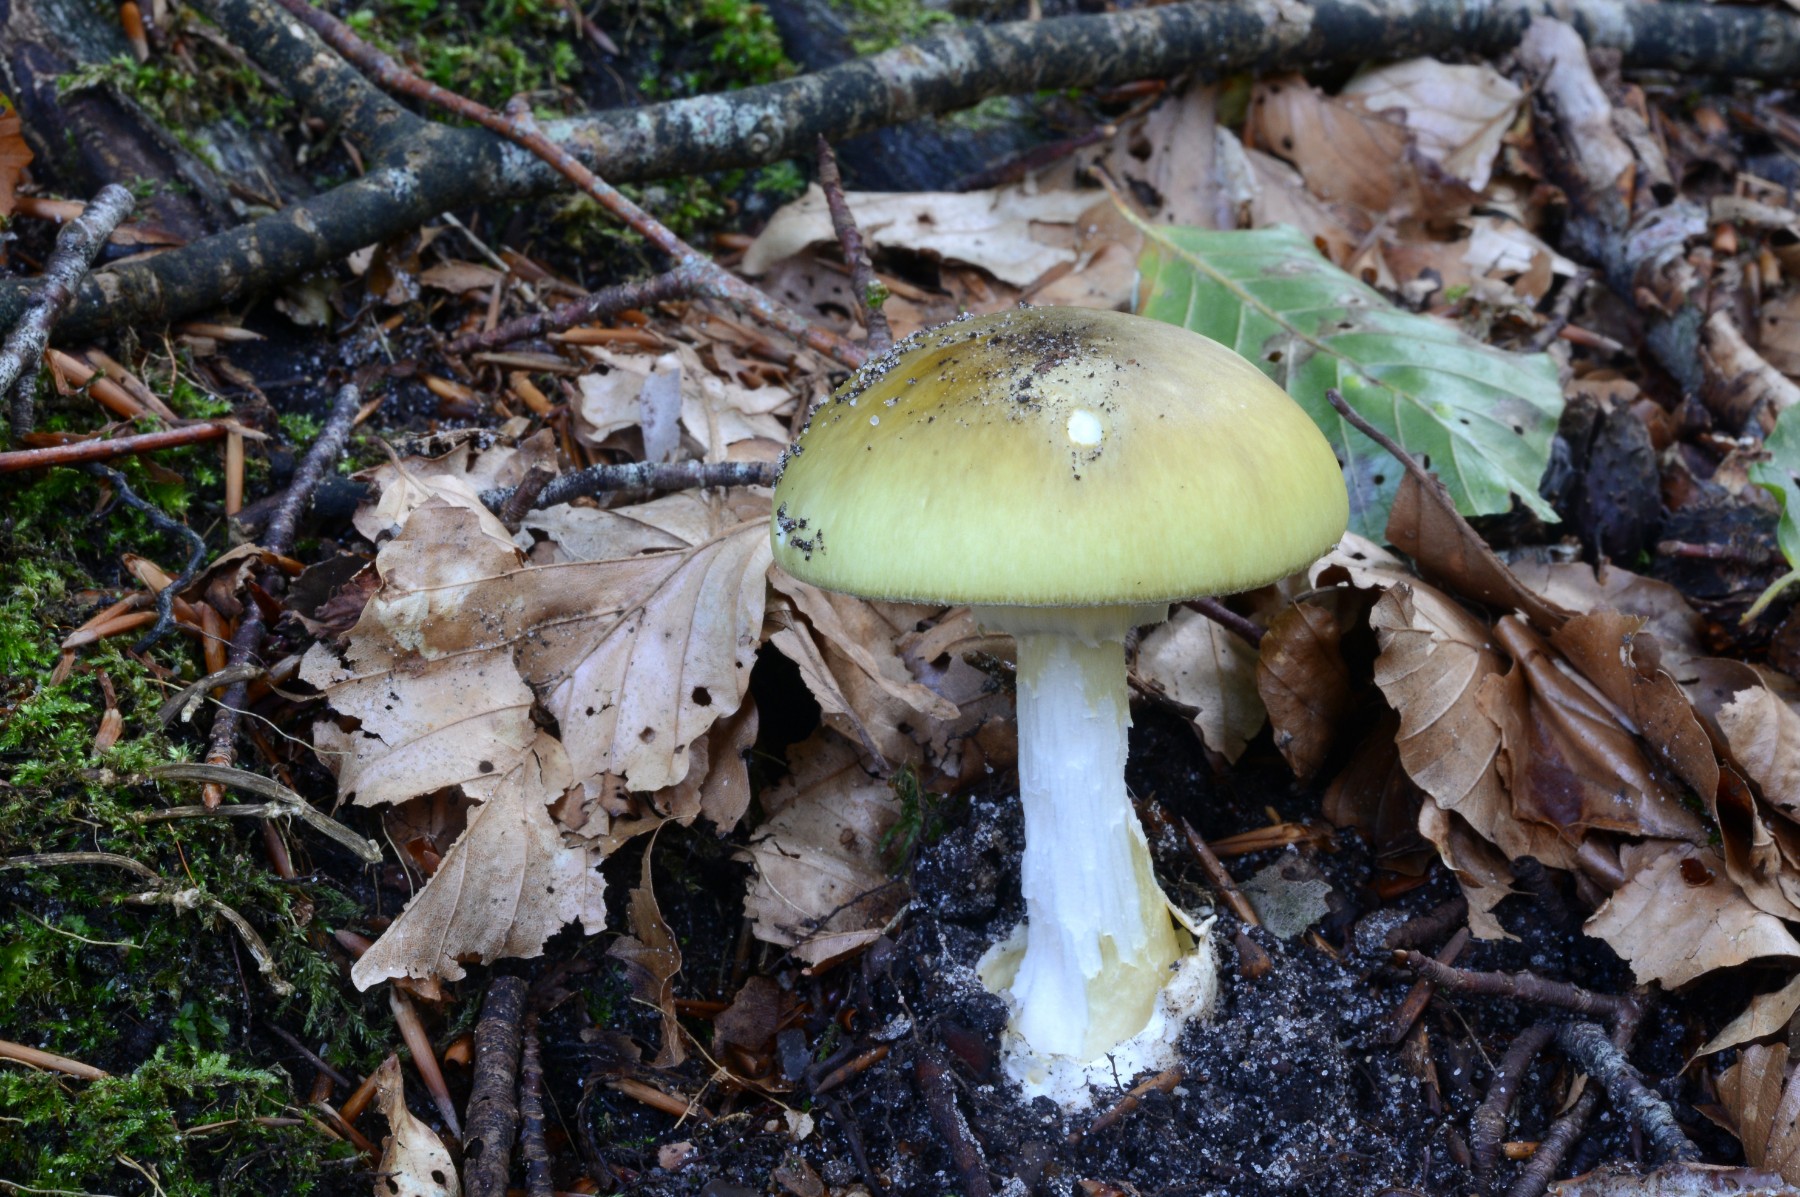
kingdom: Fungi
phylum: Basidiomycota
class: Agaricomycetes
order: Agaricales
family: Amanitaceae
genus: Amanita
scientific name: Amanita phalloides
